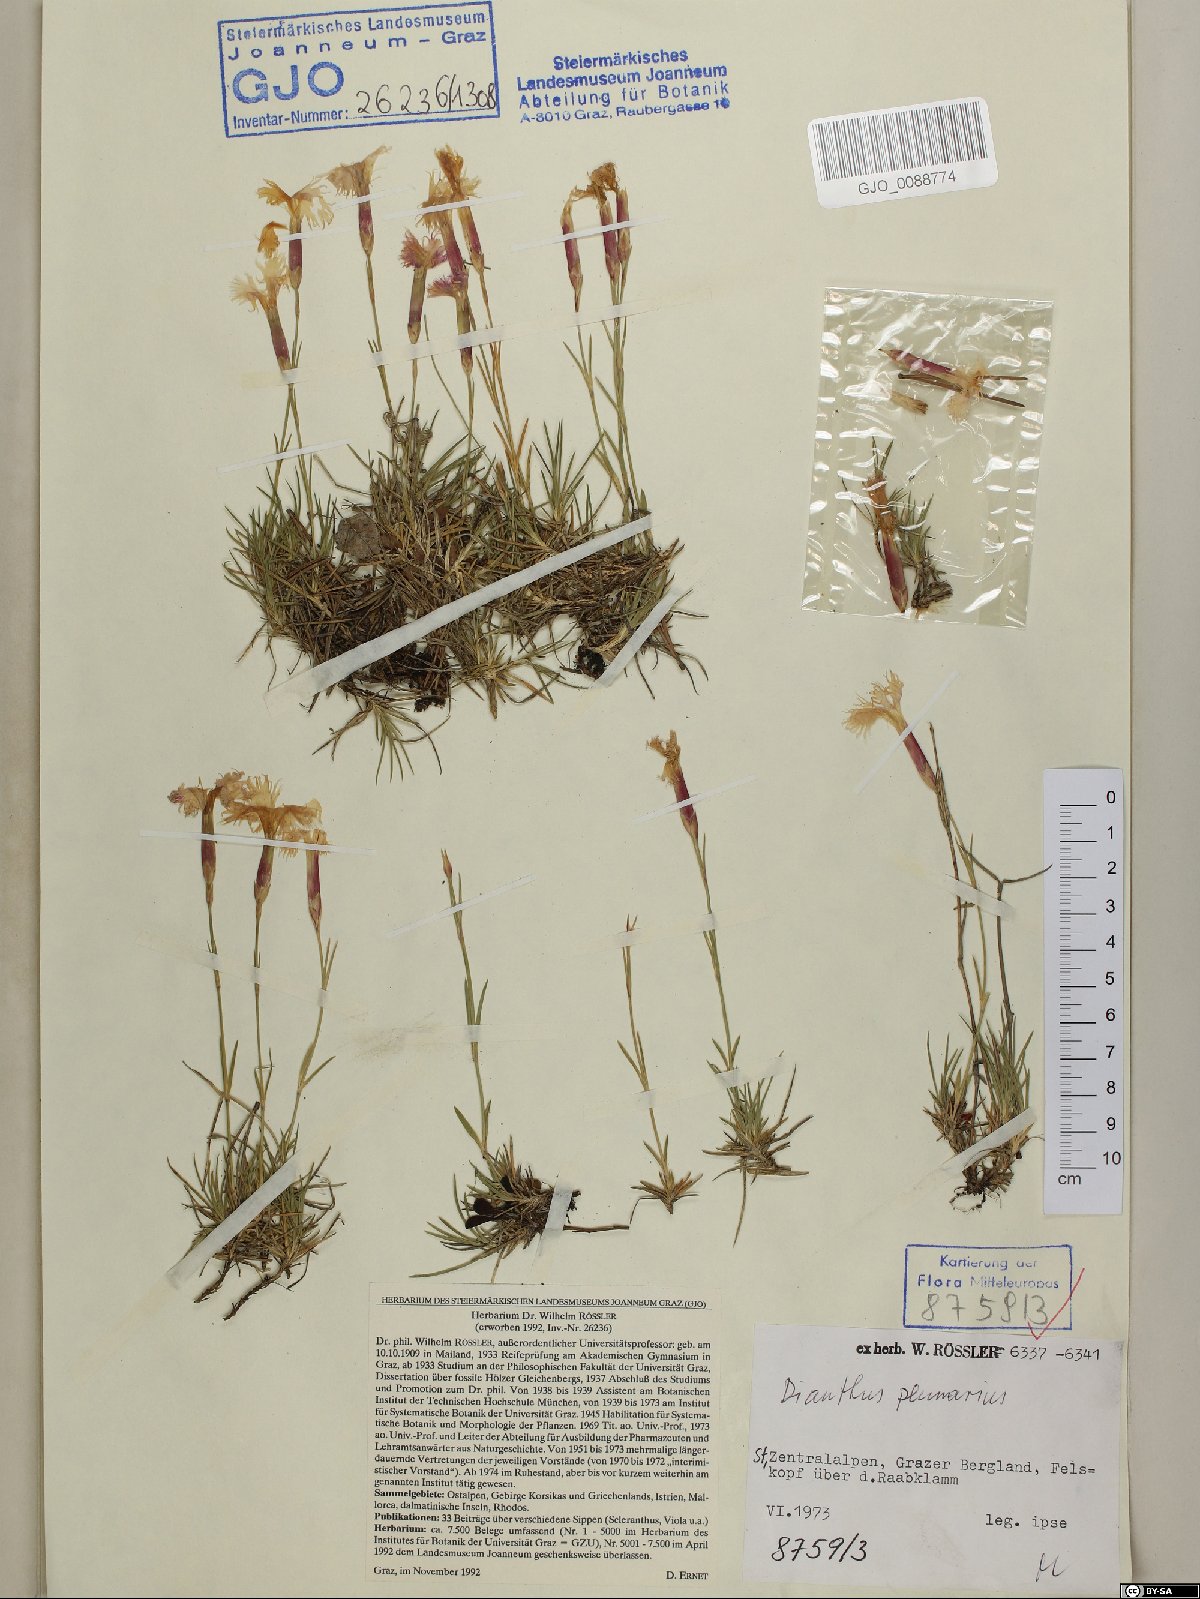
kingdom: Plantae
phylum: Tracheophyta
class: Magnoliopsida
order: Caryophyllales
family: Caryophyllaceae
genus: Dianthus
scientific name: Dianthus plumarius
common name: Pink
